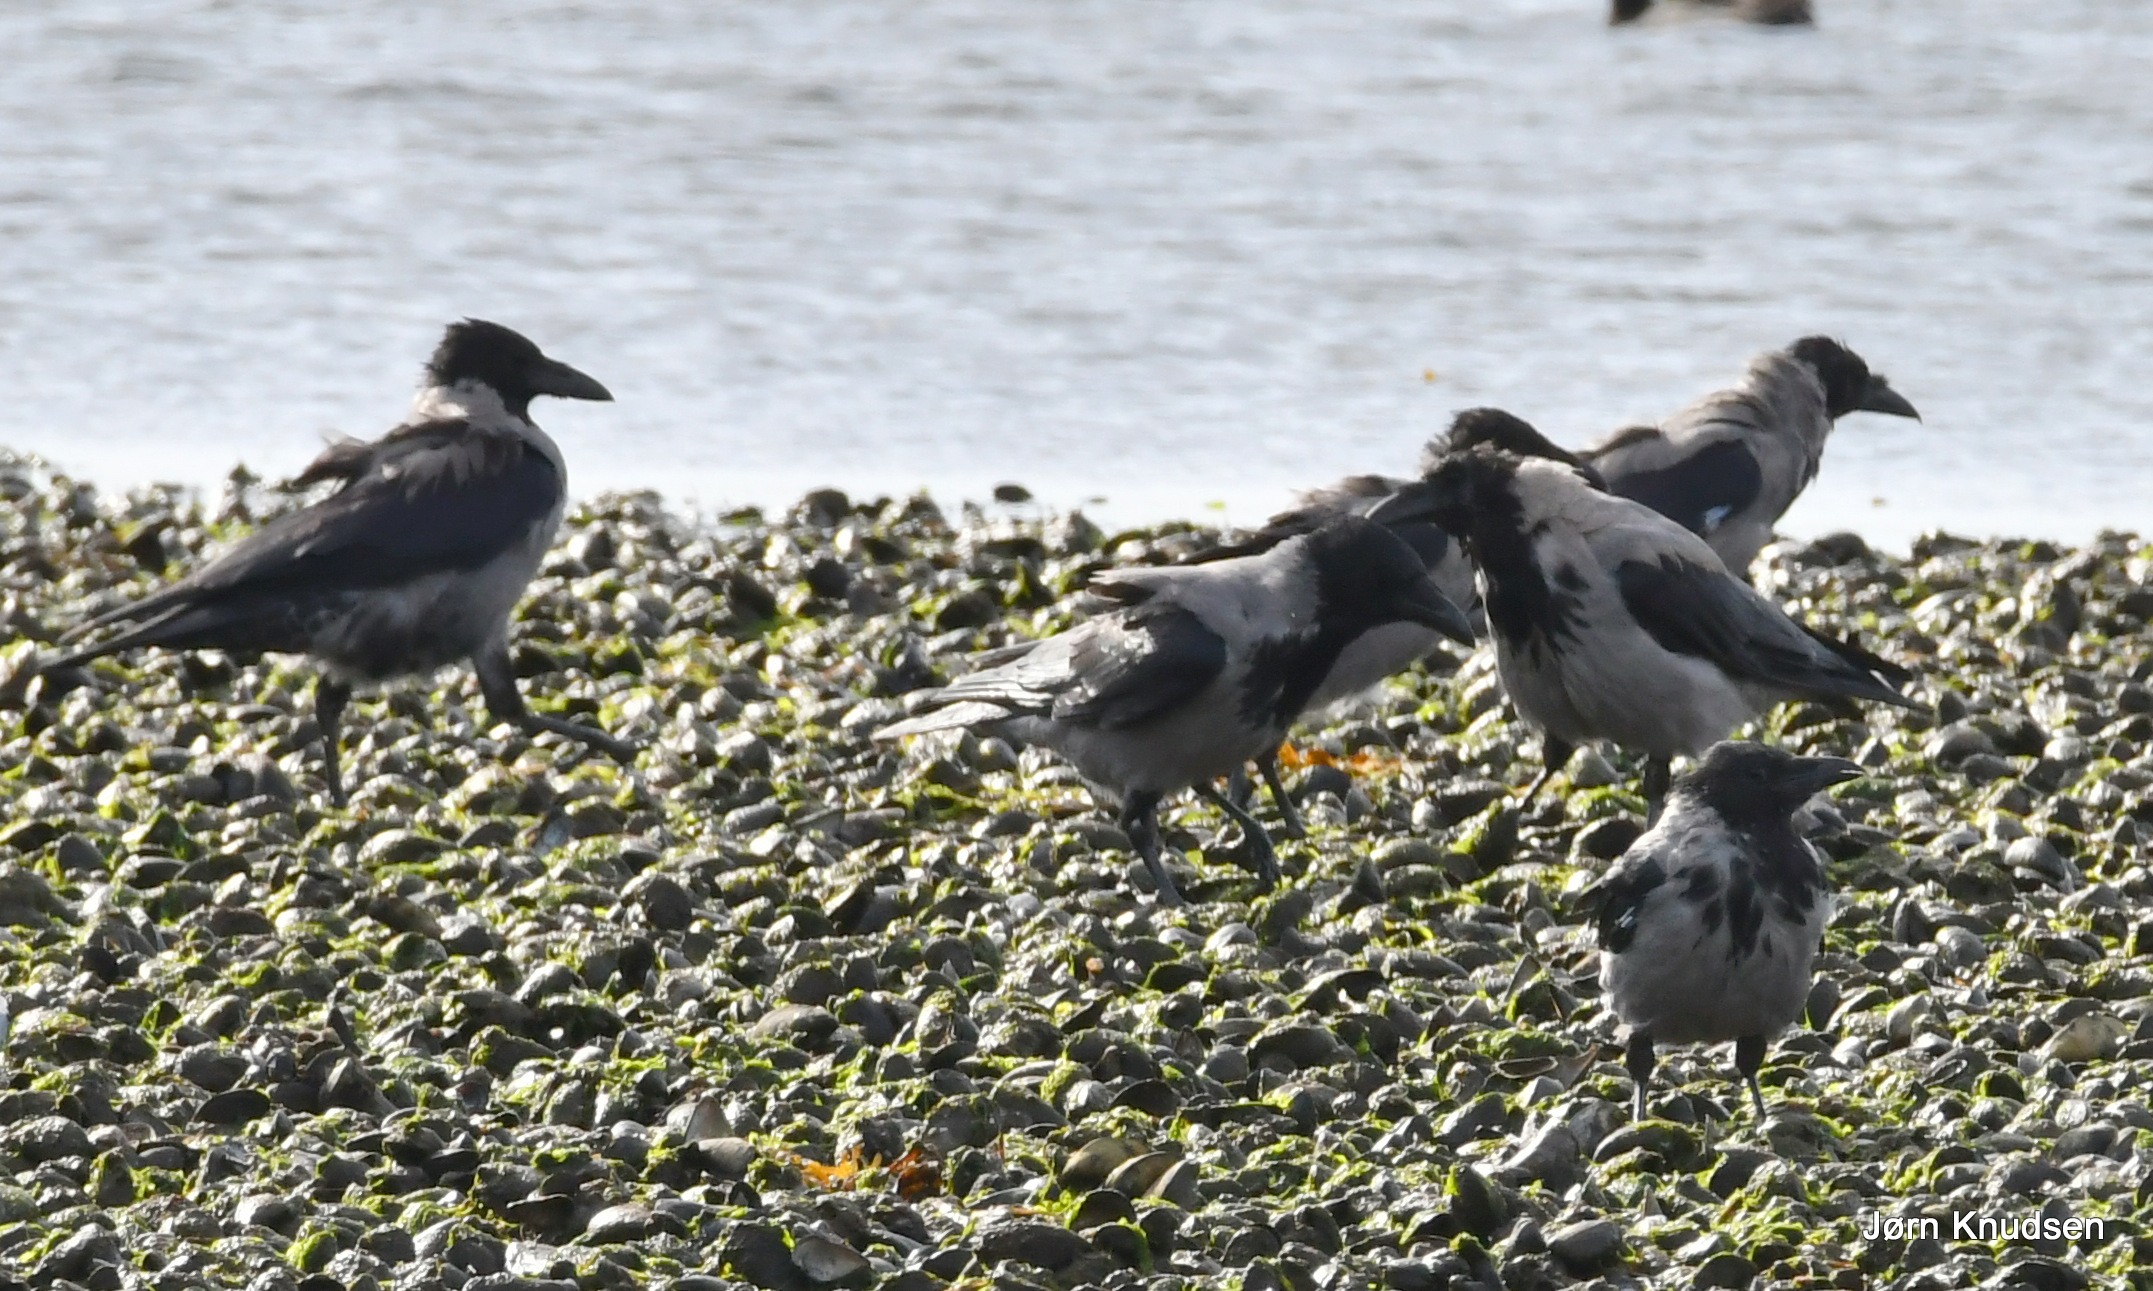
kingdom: Animalia
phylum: Chordata
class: Aves
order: Passeriformes
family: Corvidae
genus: Corvus
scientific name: Corvus cornix
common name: Gråkrage
